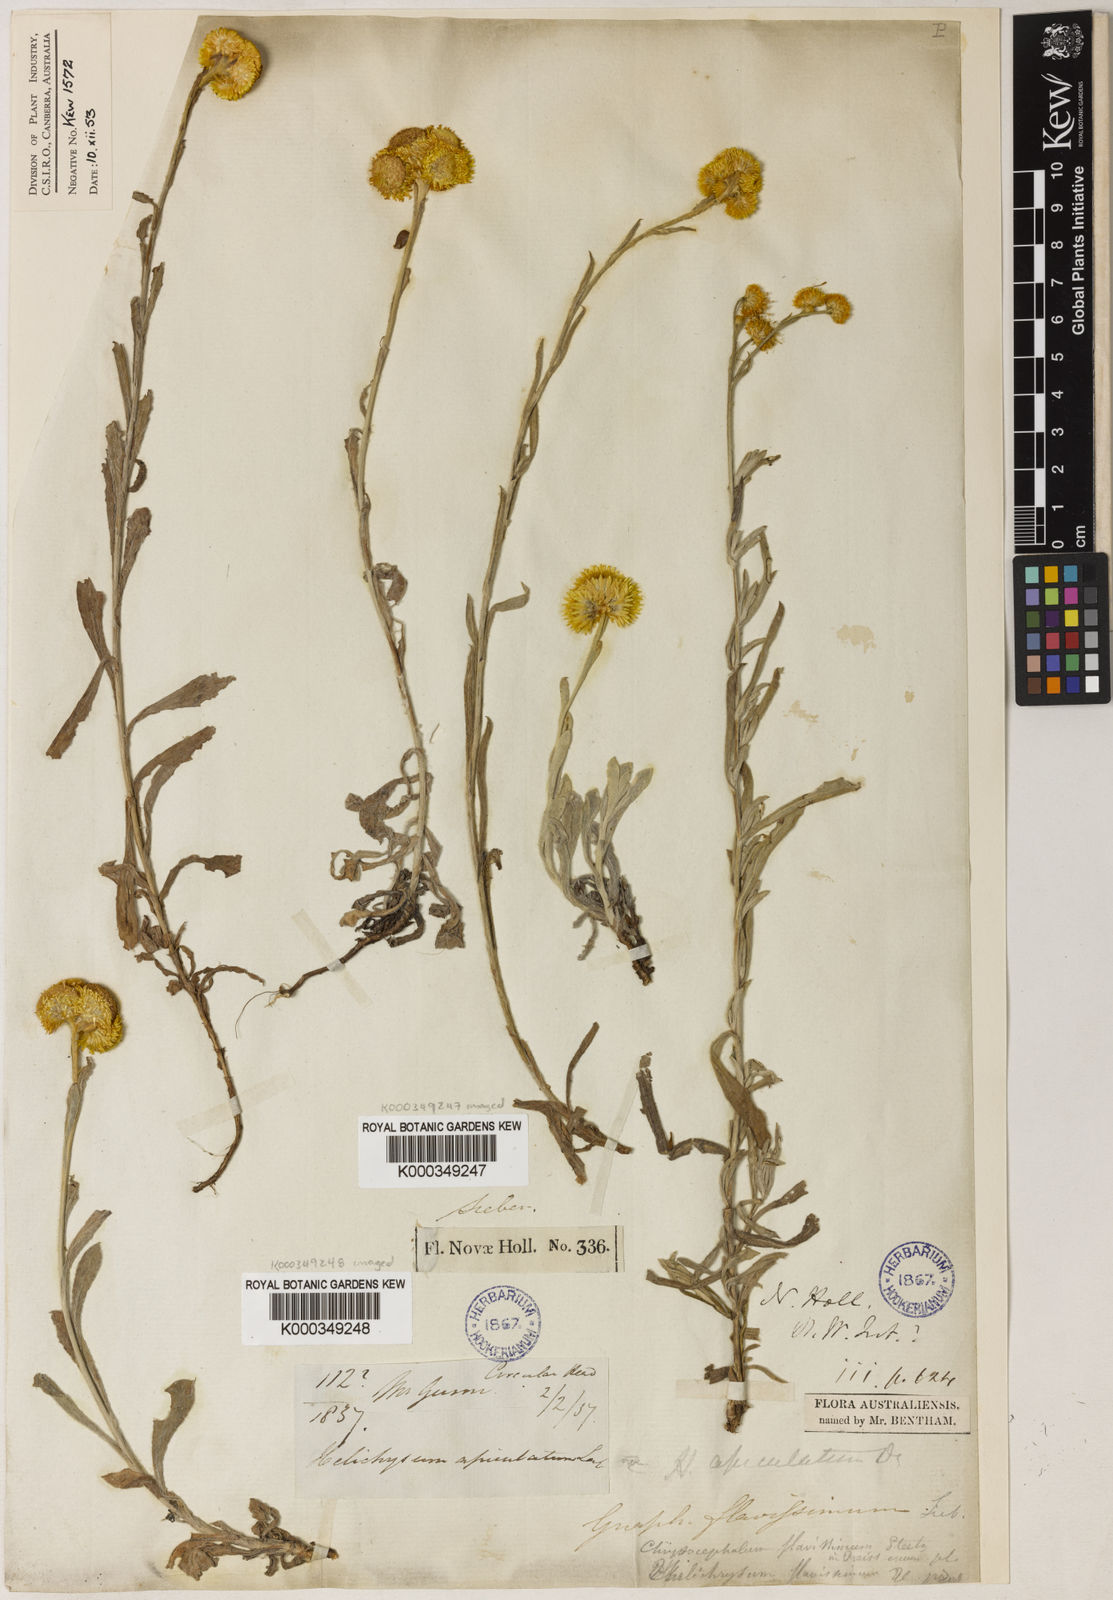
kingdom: Plantae
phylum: Tracheophyta
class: Magnoliopsida
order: Asterales
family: Asteraceae
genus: Chrysocephalum
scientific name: Chrysocephalum apiculatum
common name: Common everlasting
